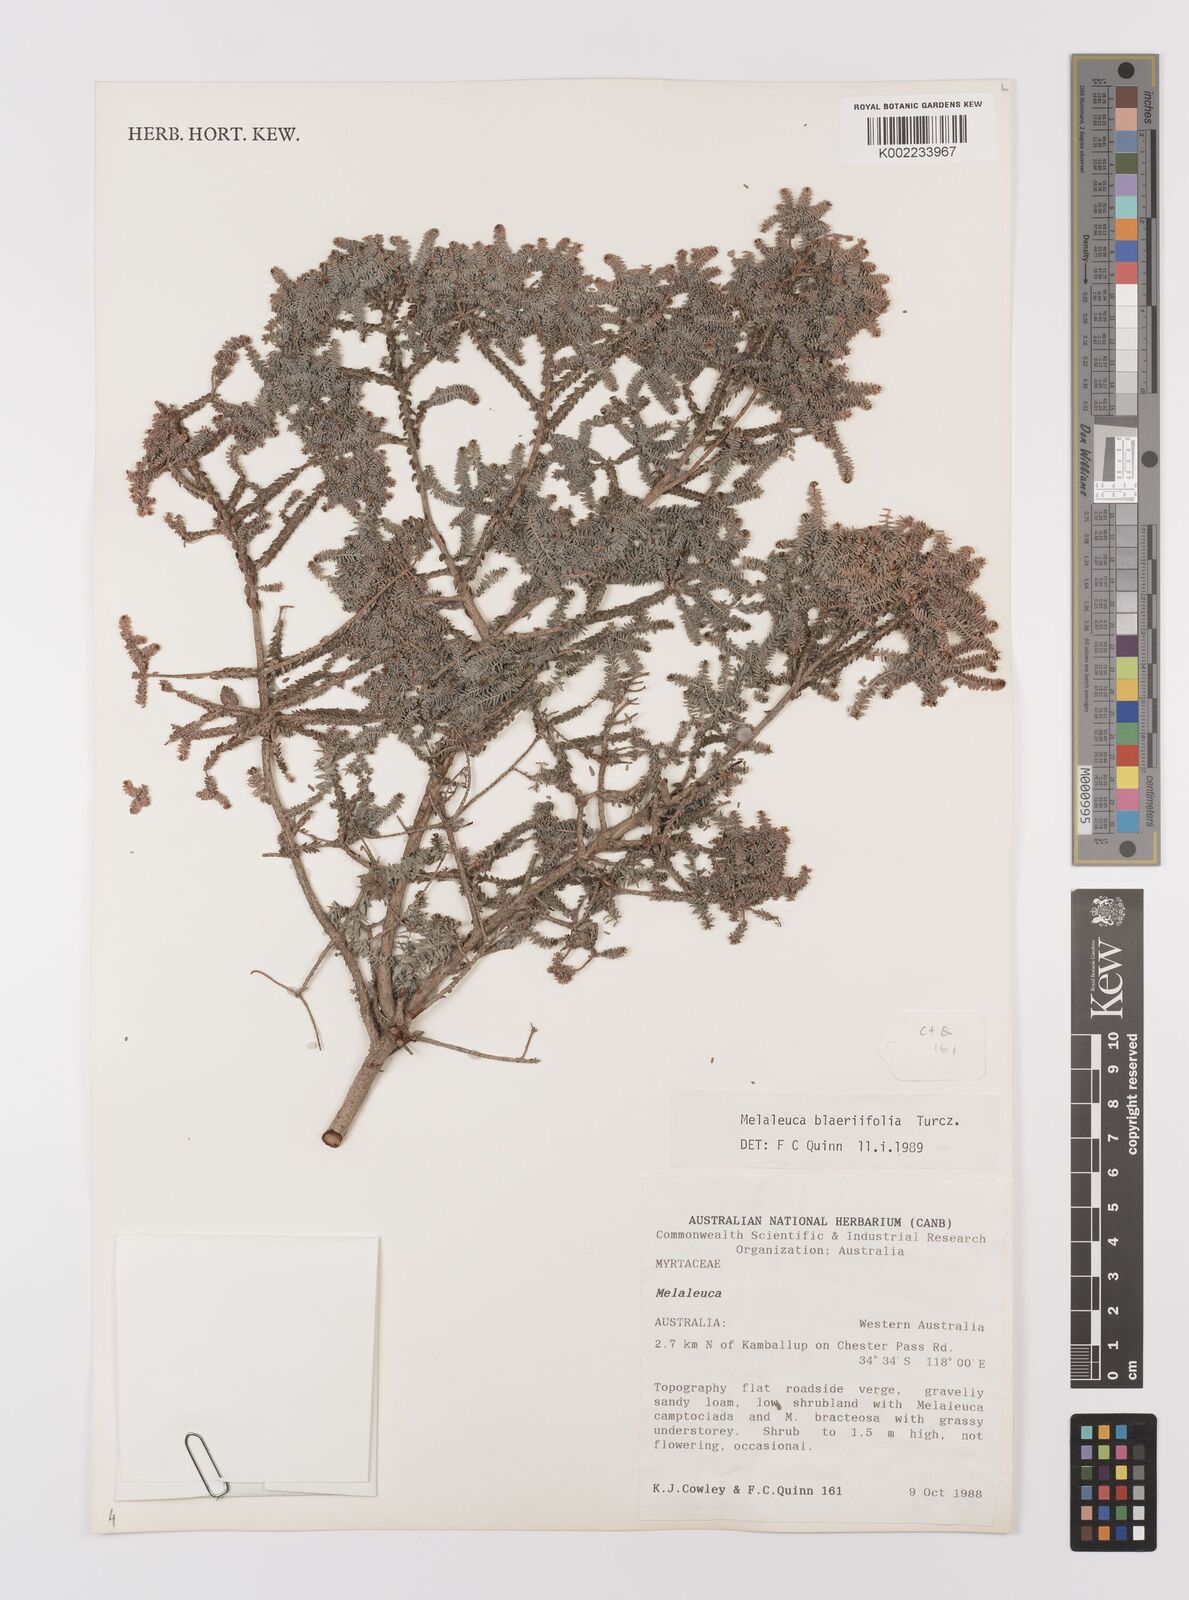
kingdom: Plantae
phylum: Tracheophyta
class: Magnoliopsida
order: Myrtales
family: Myrtaceae
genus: Melaleuca
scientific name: Melaleuca blaeriifolia
